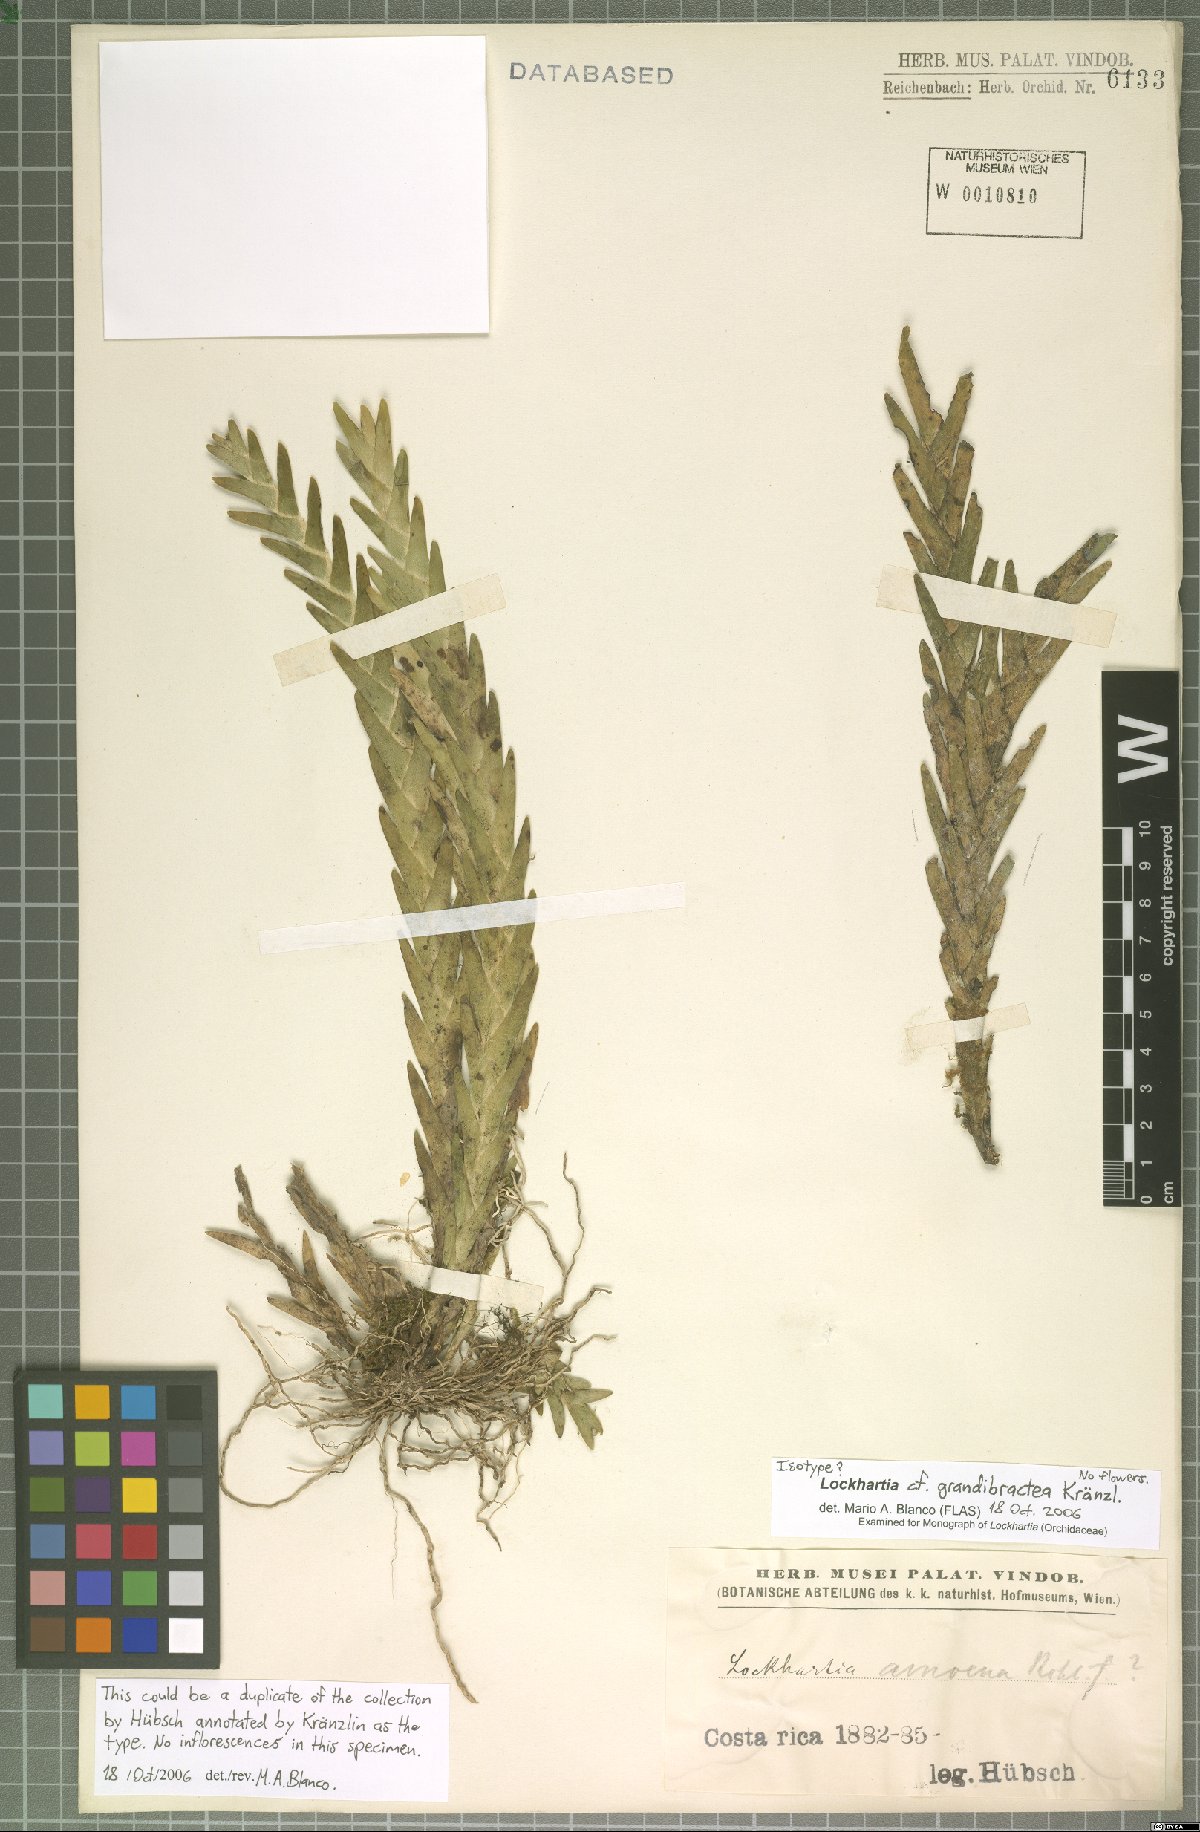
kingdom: Plantae
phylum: Tracheophyta
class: Liliopsida
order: Asparagales
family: Orchidaceae
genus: Lockhartia
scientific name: Lockhartia amoena
